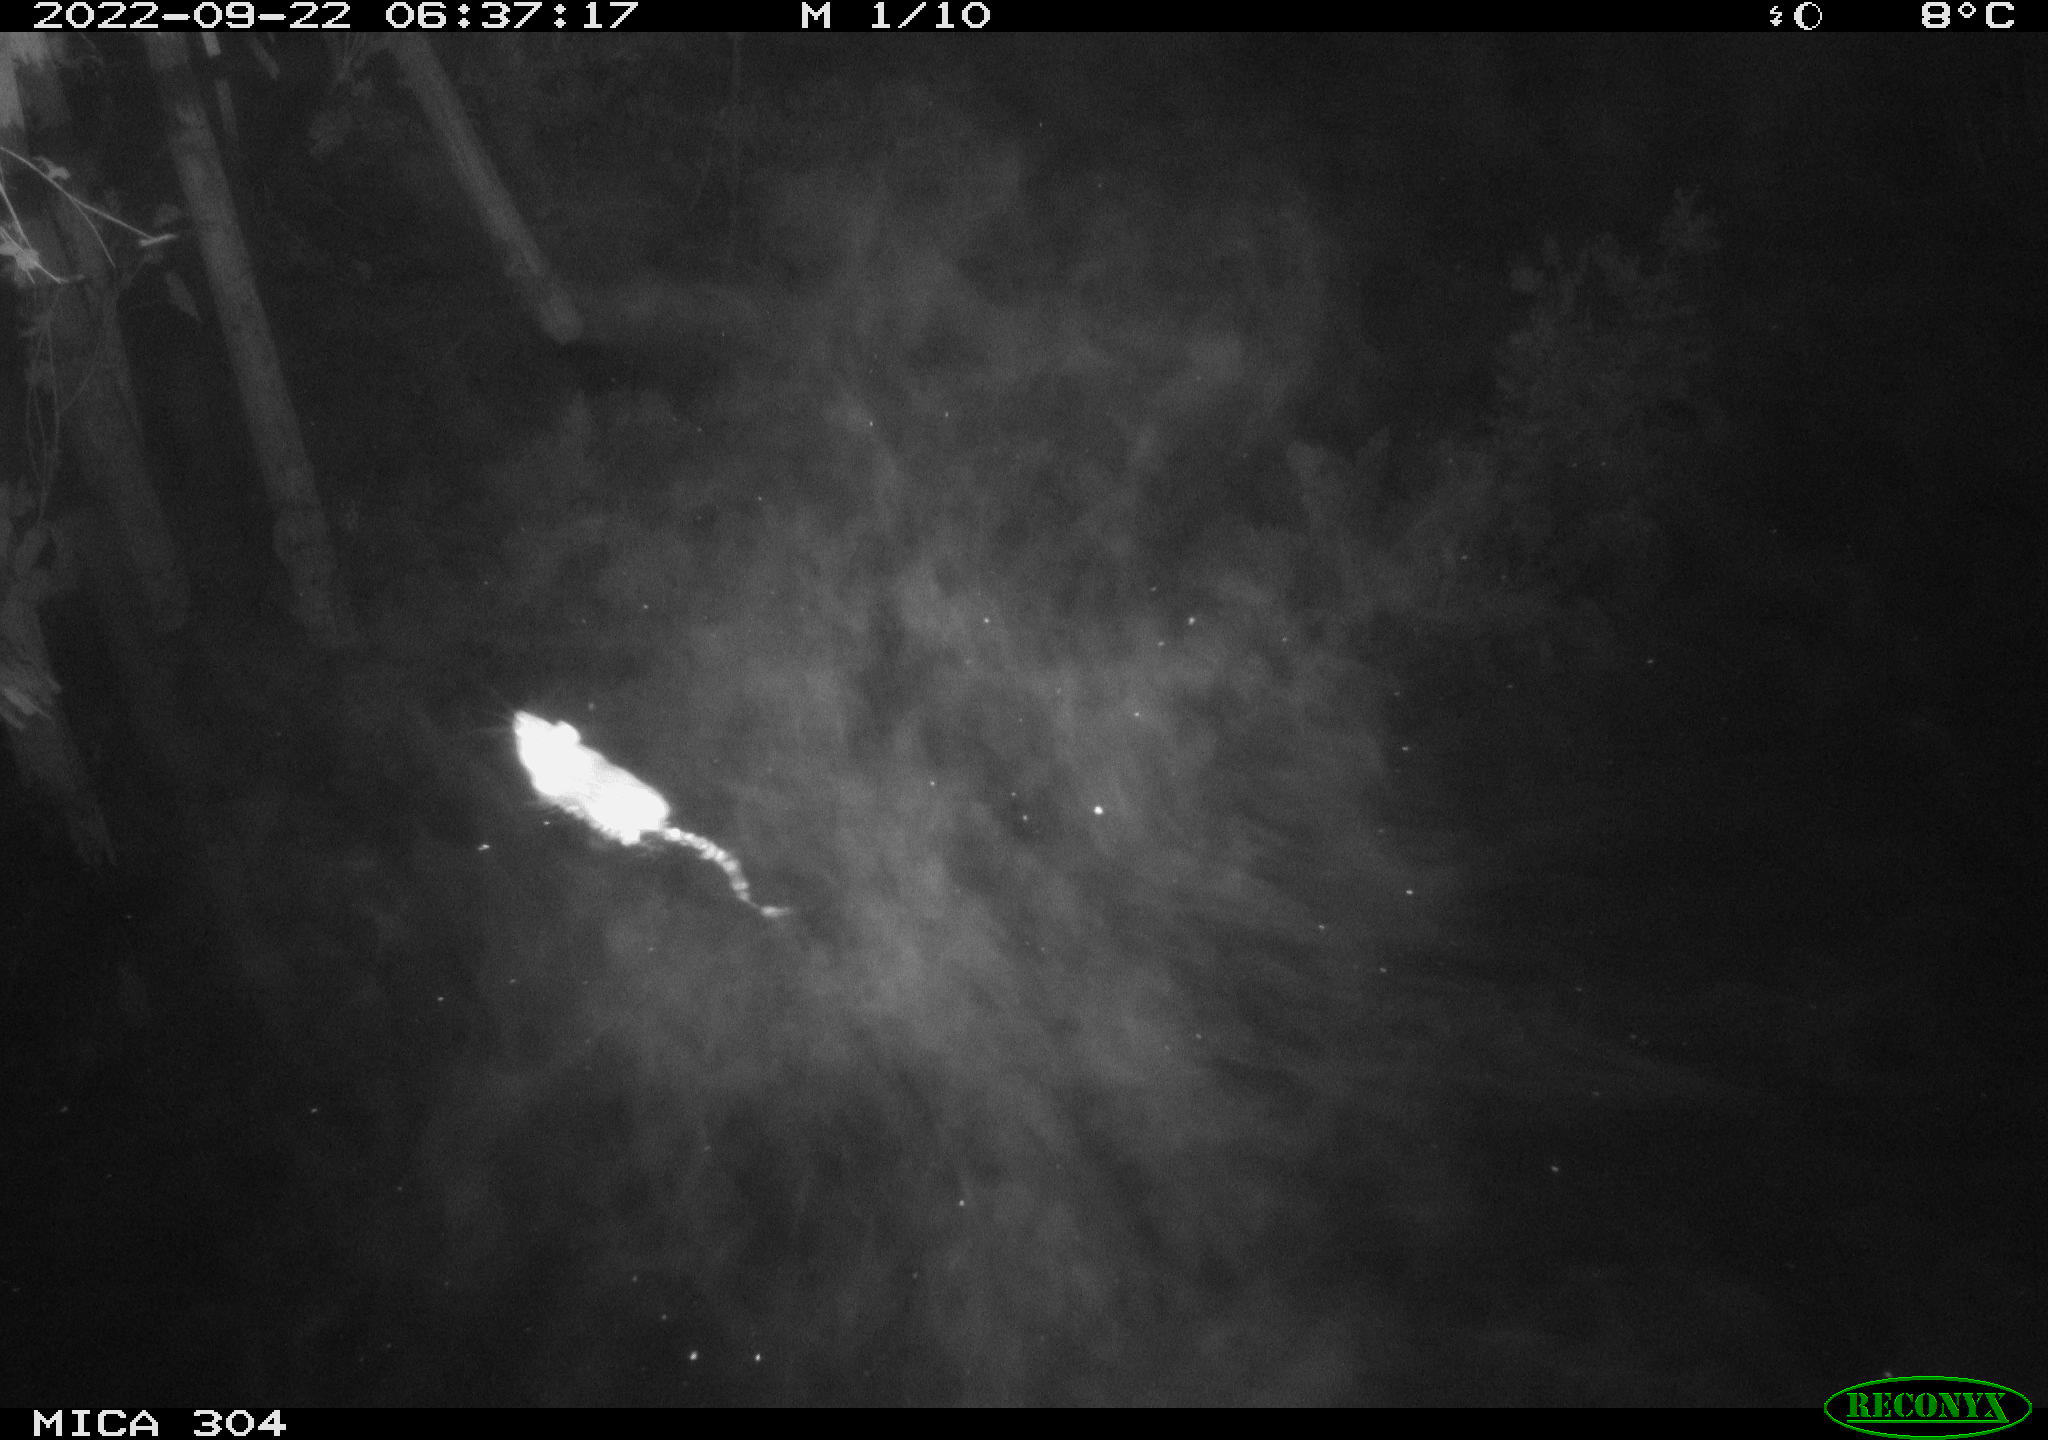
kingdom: Animalia
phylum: Chordata
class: Mammalia
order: Rodentia
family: Muridae
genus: Rattus
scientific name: Rattus norvegicus
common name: Brown rat
